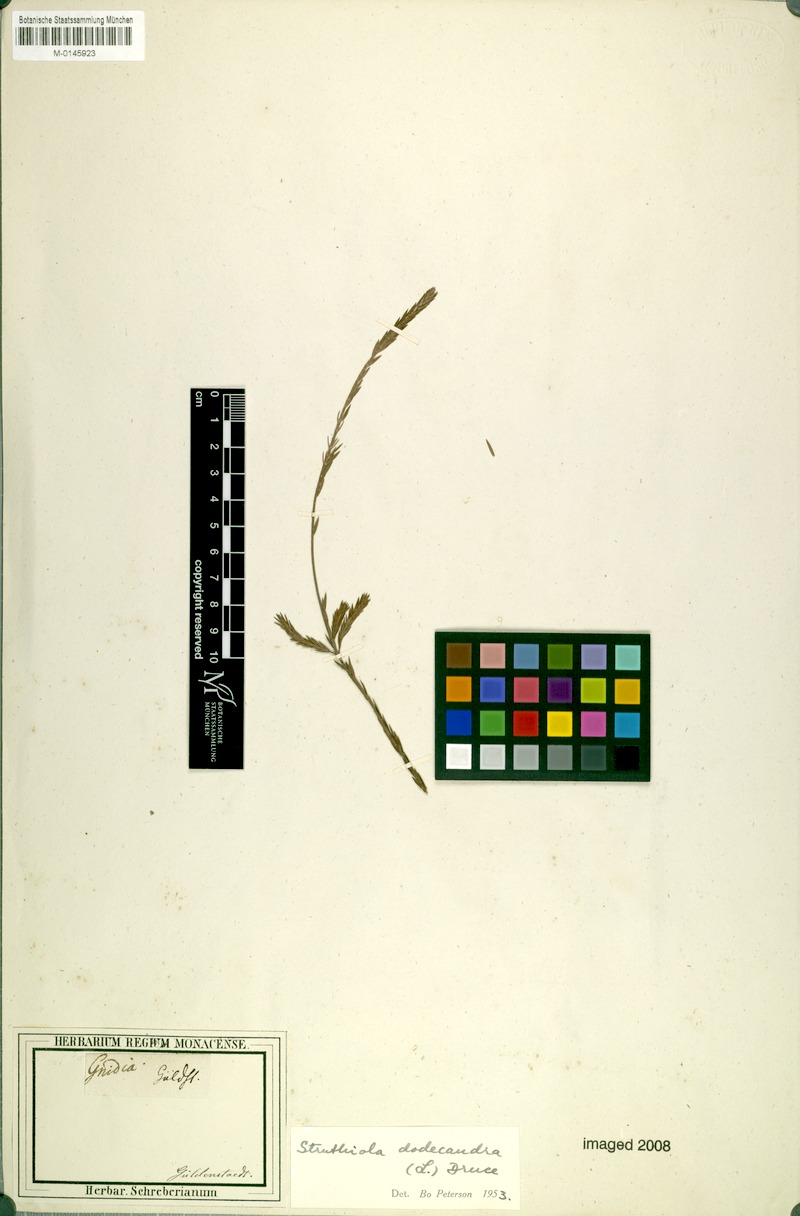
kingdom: Plantae
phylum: Tracheophyta
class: Magnoliopsida
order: Malvales
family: Thymelaeaceae
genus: Struthiola
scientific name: Struthiola dodecandra
